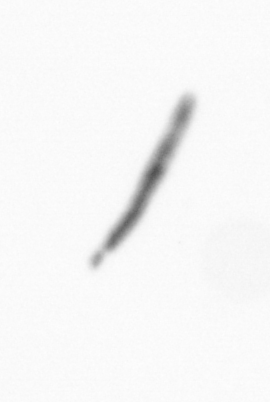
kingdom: Chromista
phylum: Ochrophyta
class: Bacillariophyceae
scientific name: Bacillariophyceae
